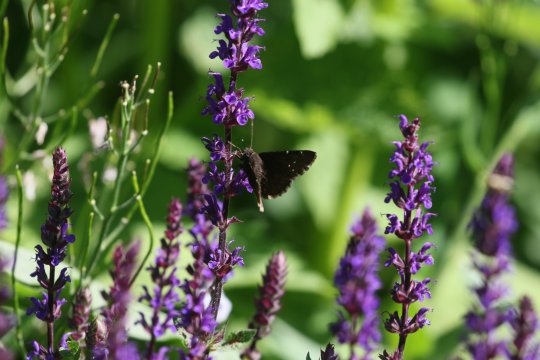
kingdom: Animalia
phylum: Arthropoda
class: Insecta
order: Lepidoptera
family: Hesperiidae
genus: Erynnis
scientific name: Erynnis
